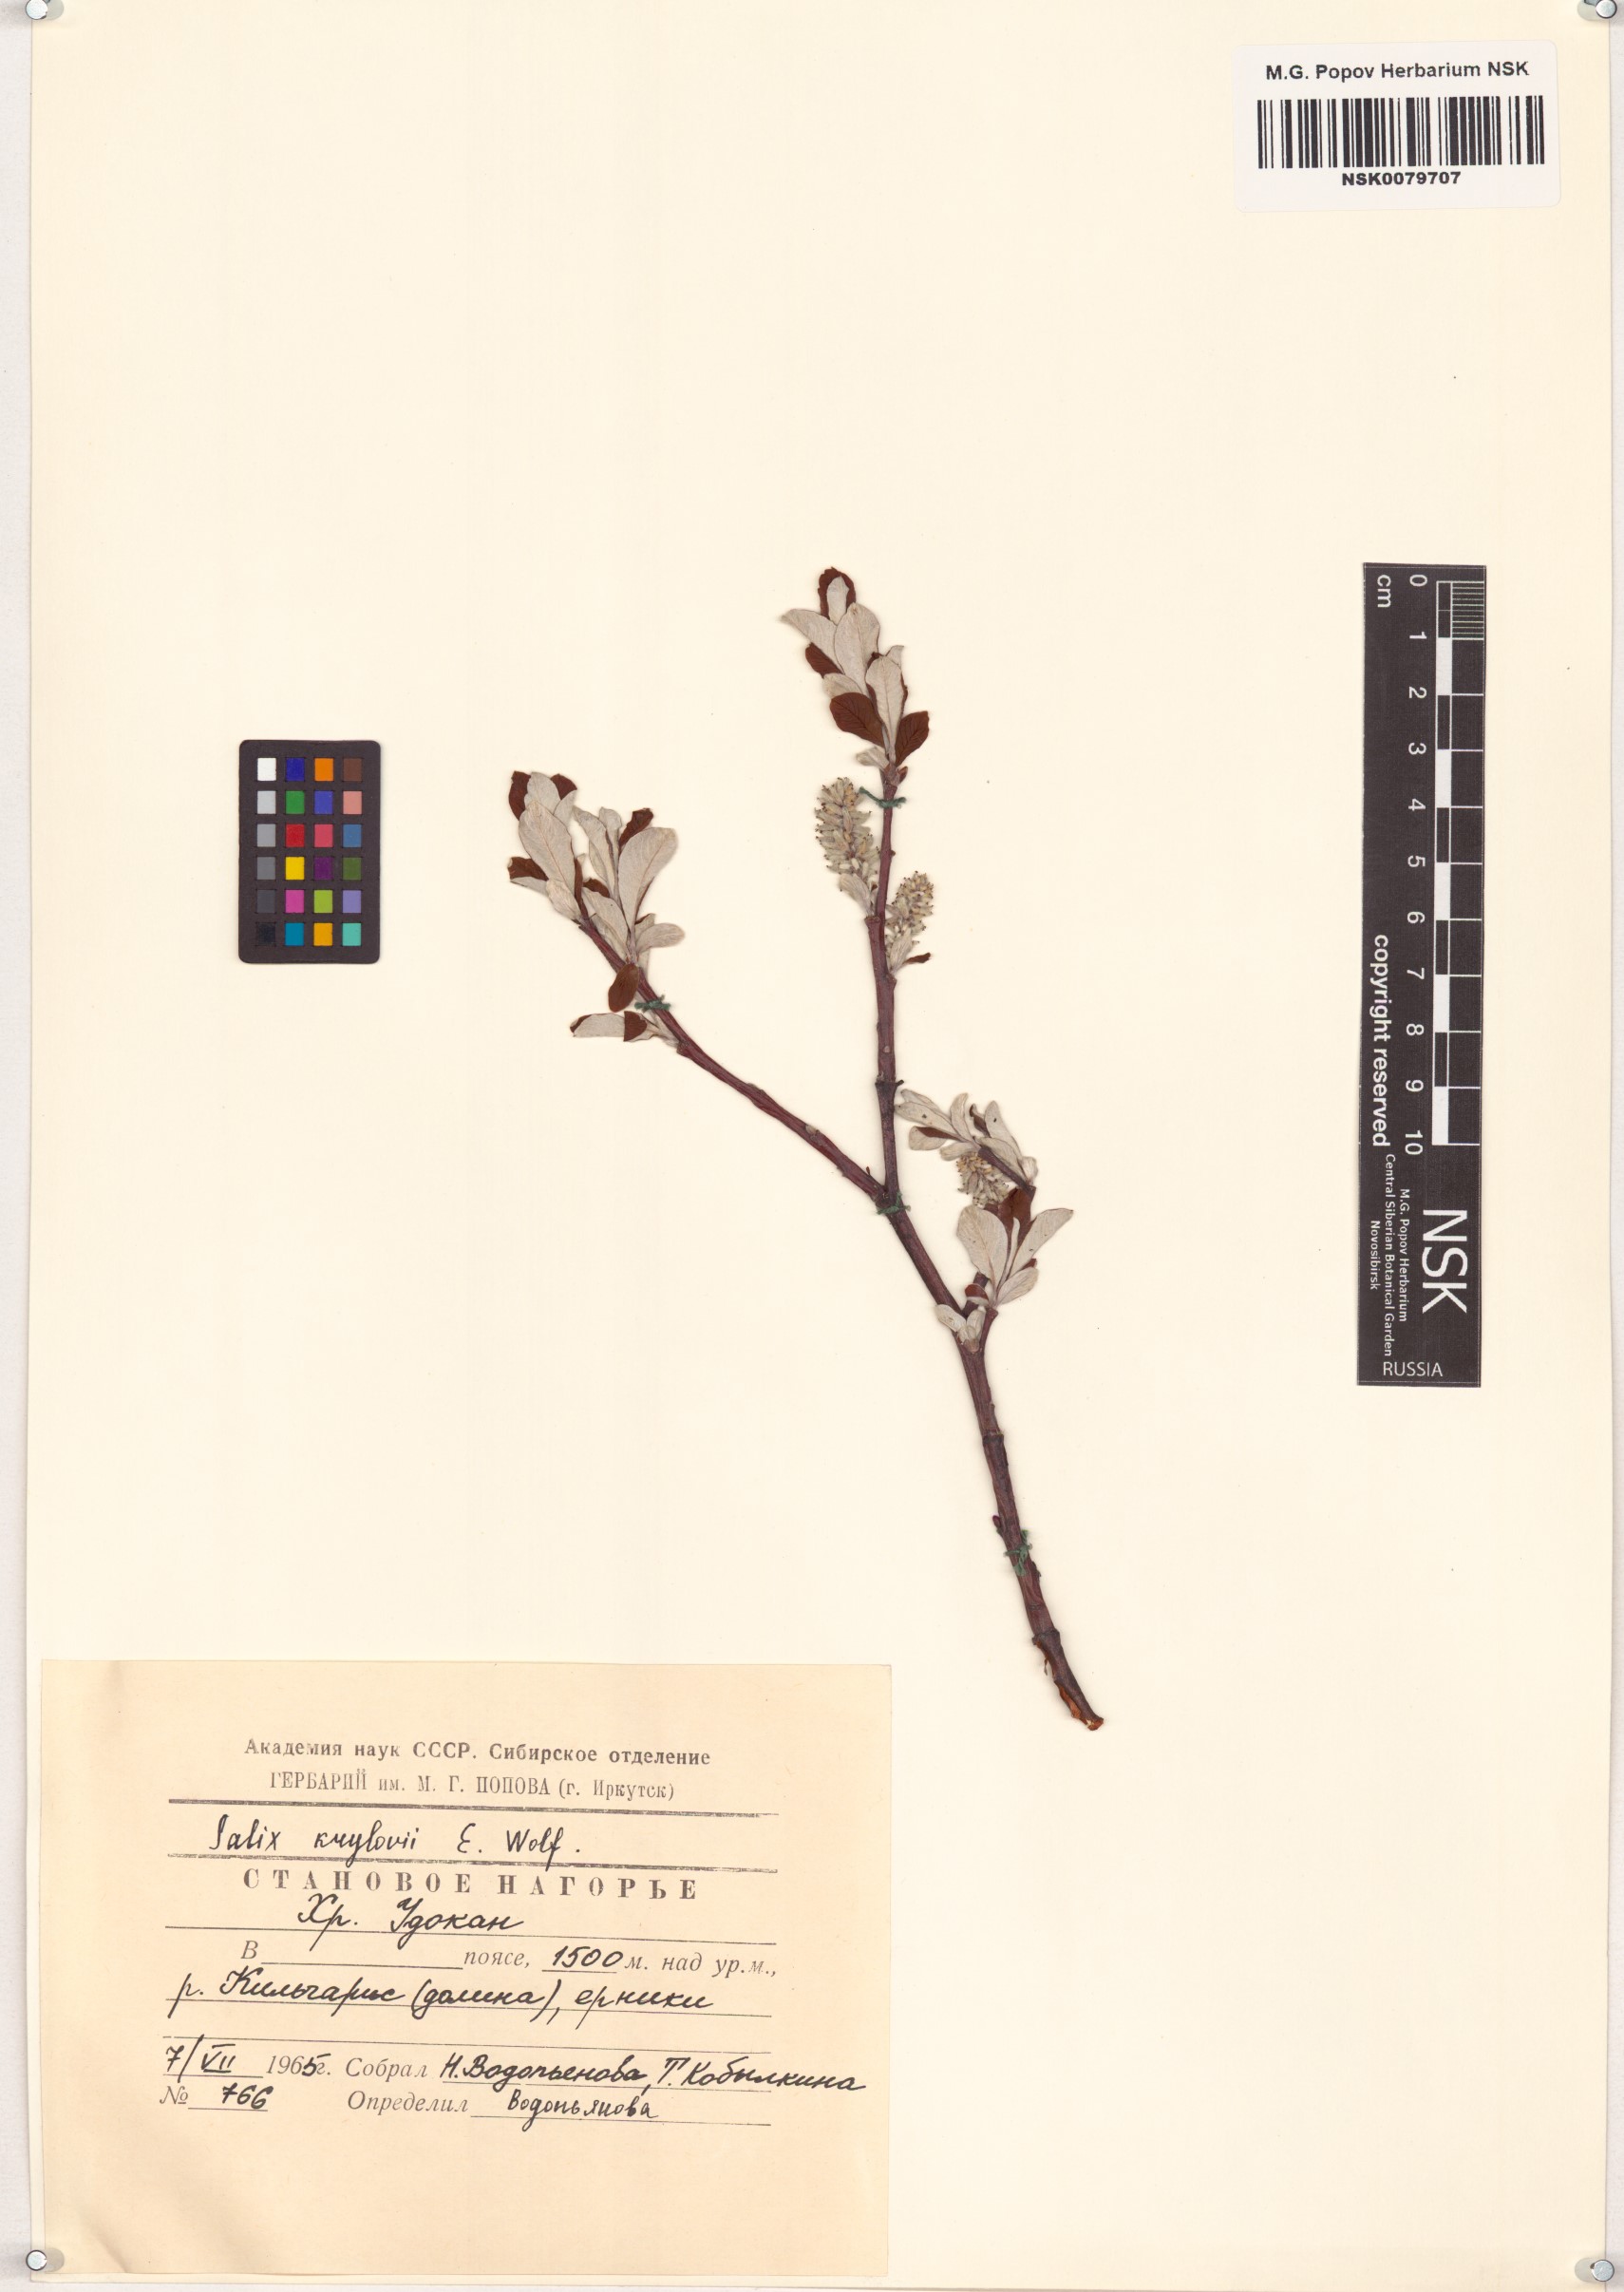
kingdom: Plantae
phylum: Tracheophyta
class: Magnoliopsida
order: Malpighiales
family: Salicaceae
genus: Salix
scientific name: Salix krylovii
